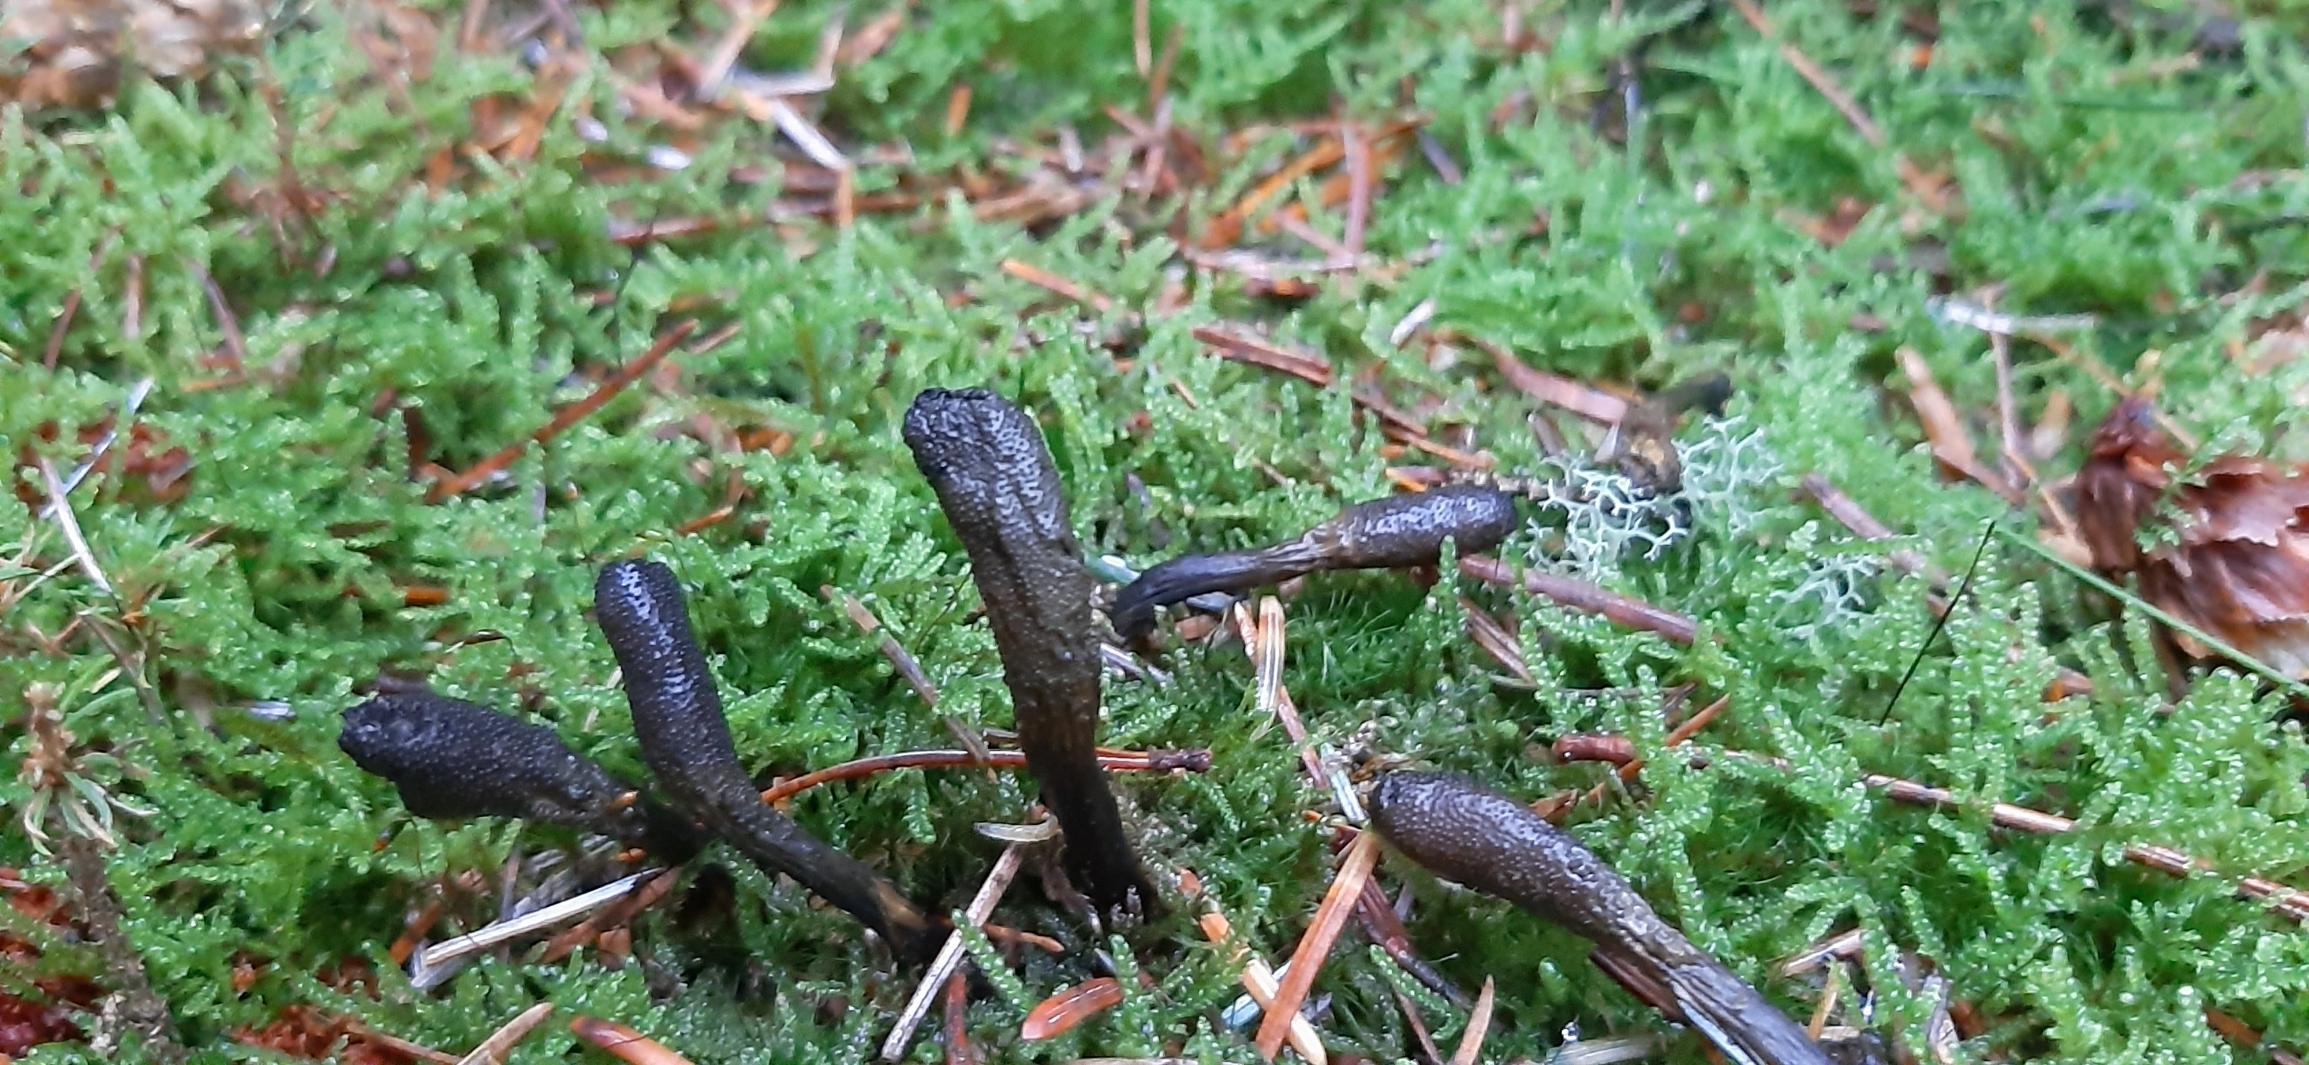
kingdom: Fungi
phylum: Ascomycota
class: Sordariomycetes
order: Hypocreales
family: Ophiocordycipitaceae
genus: Tolypocladium
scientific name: Tolypocladium ophioglossoides
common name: Slank snyltekølle
